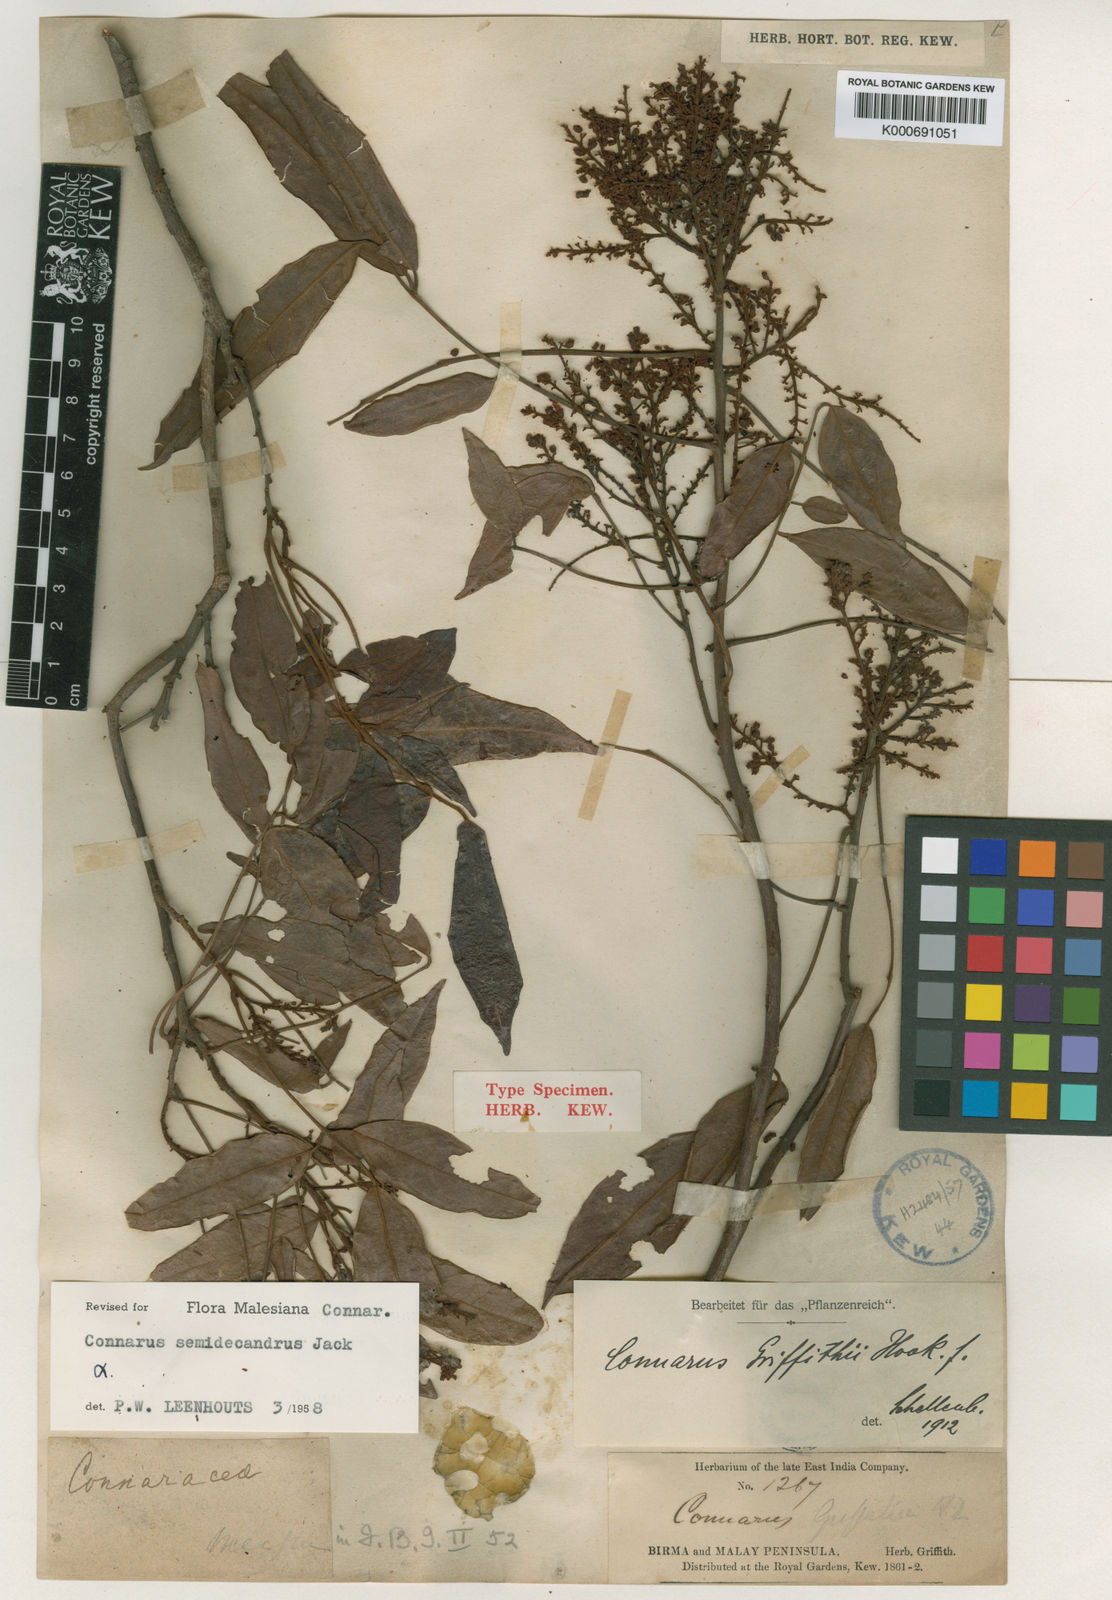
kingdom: Plantae
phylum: Tracheophyta
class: Magnoliopsida
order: Oxalidales
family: Connaraceae
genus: Connarus
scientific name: Connarus semidecandrus
